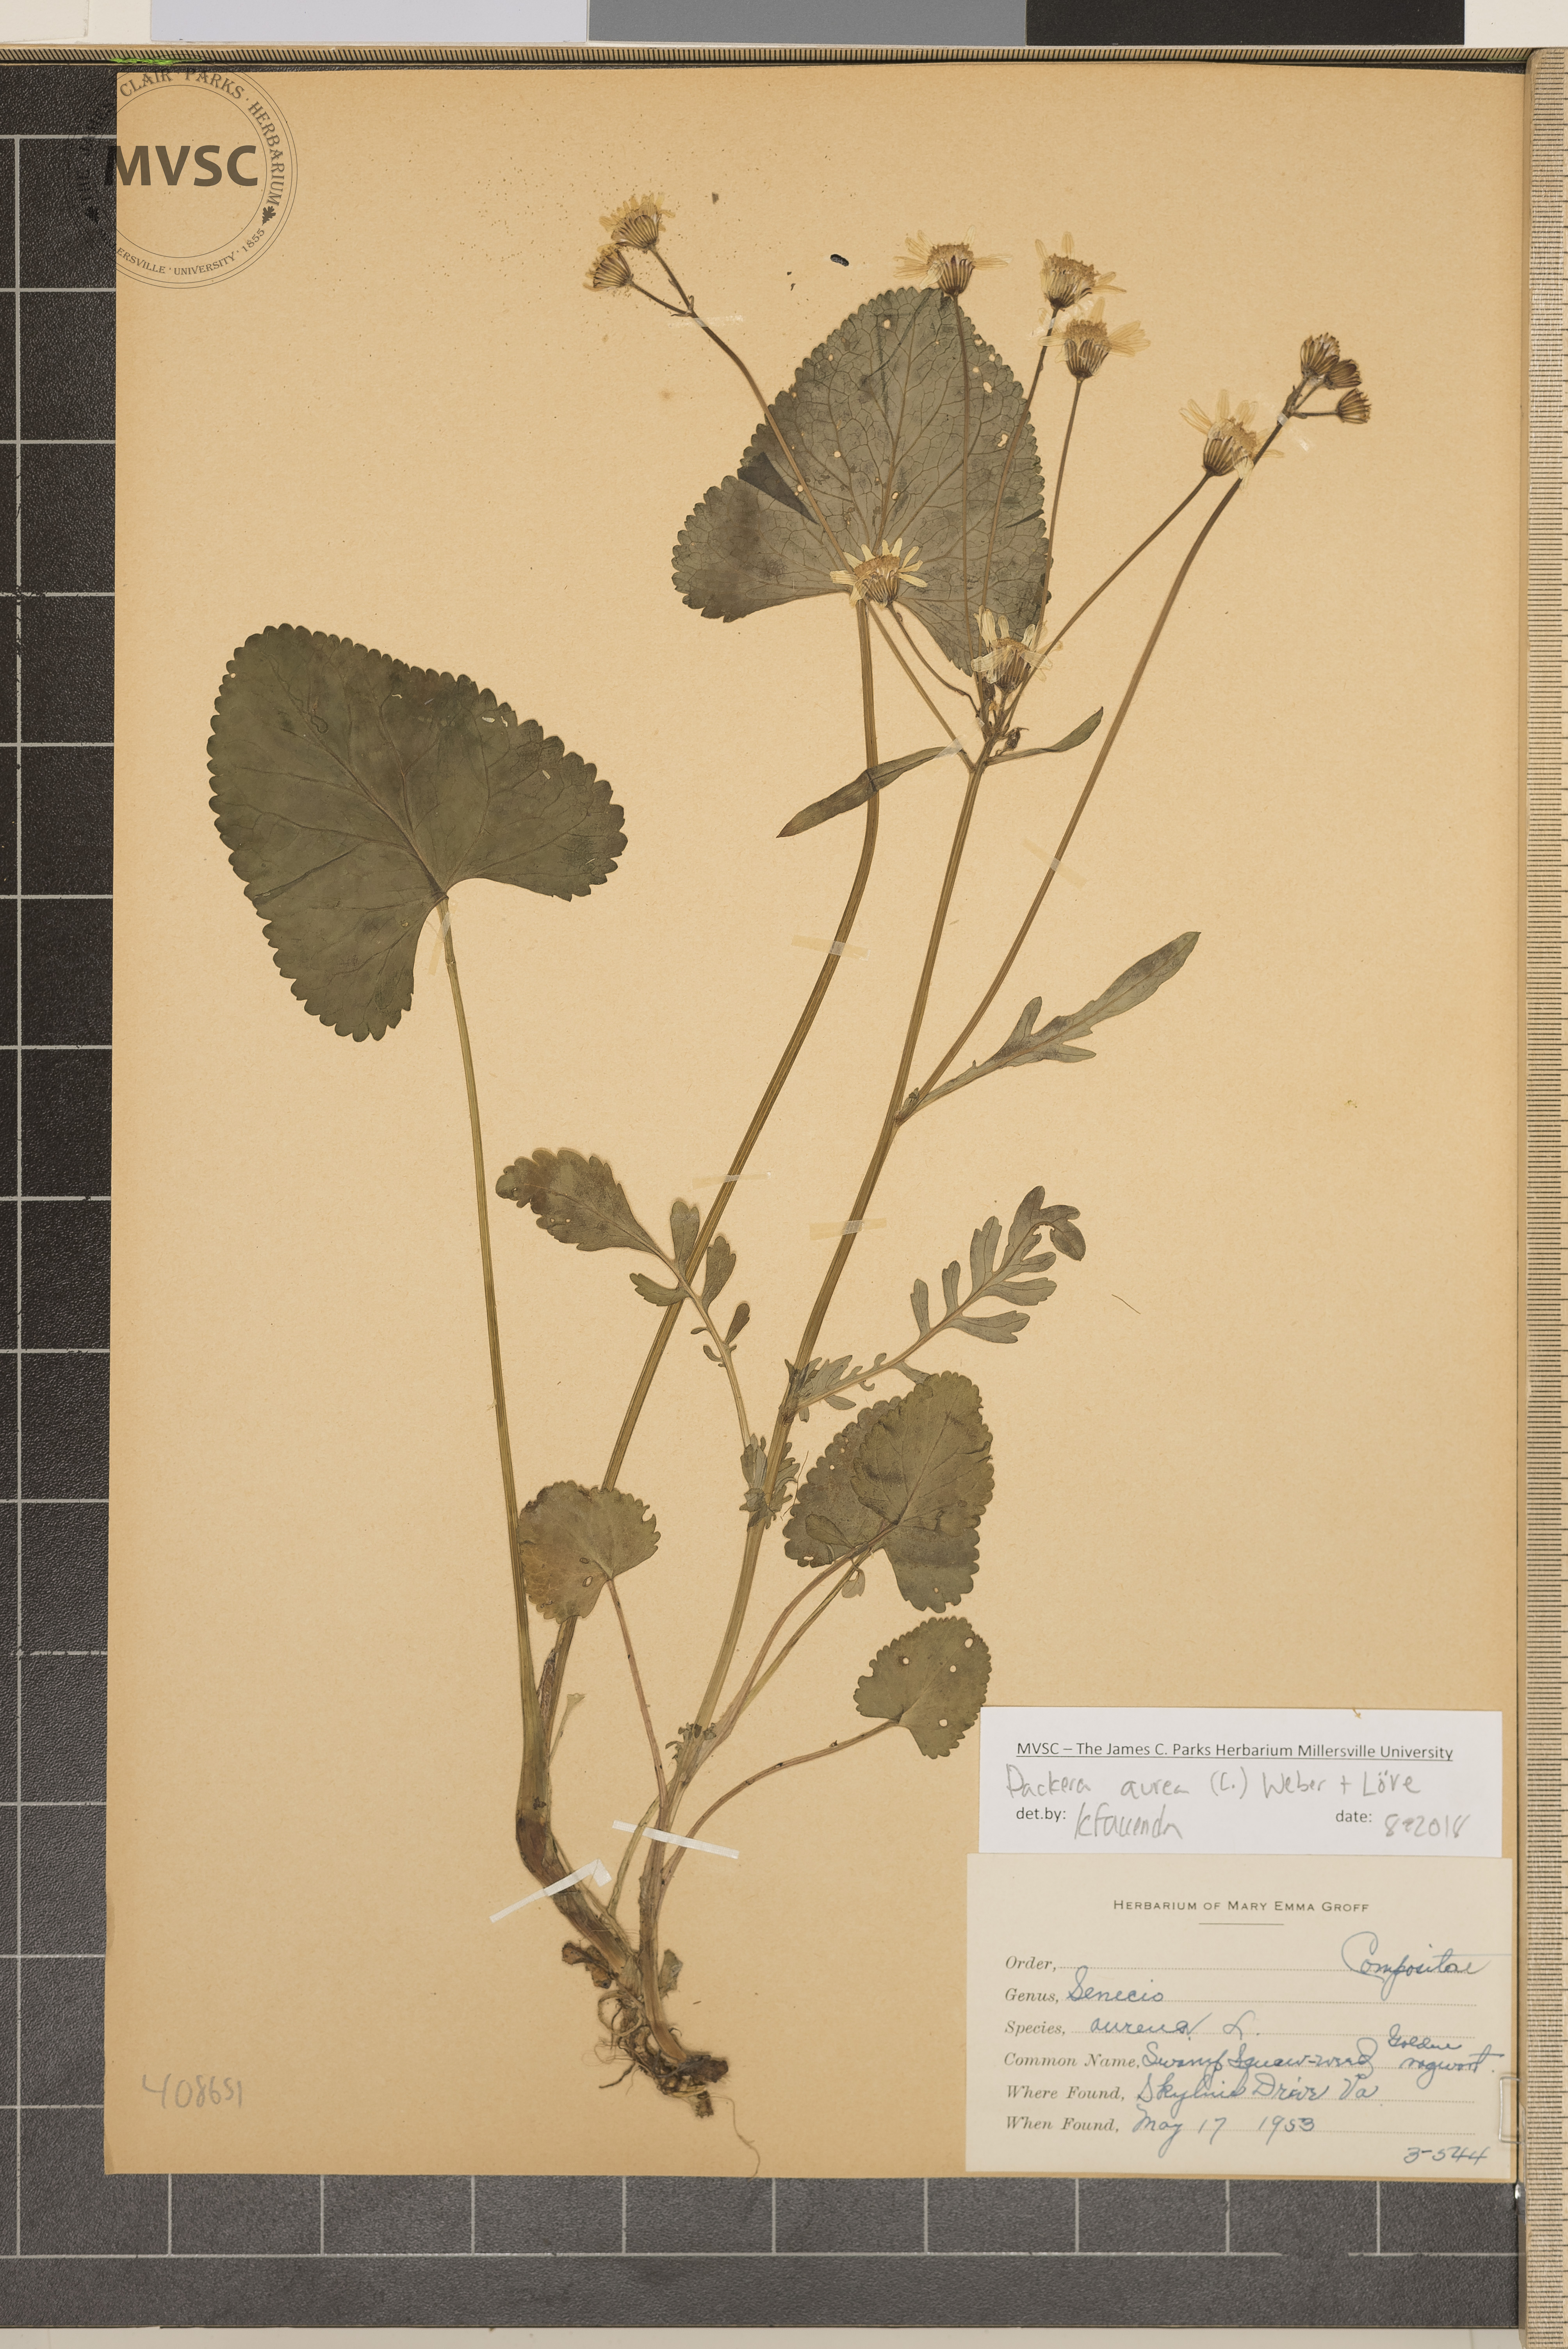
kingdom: Plantae
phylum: Tracheophyta
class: Magnoliopsida
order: Asterales
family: Asteraceae
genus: Packera
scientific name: Packera aurea
